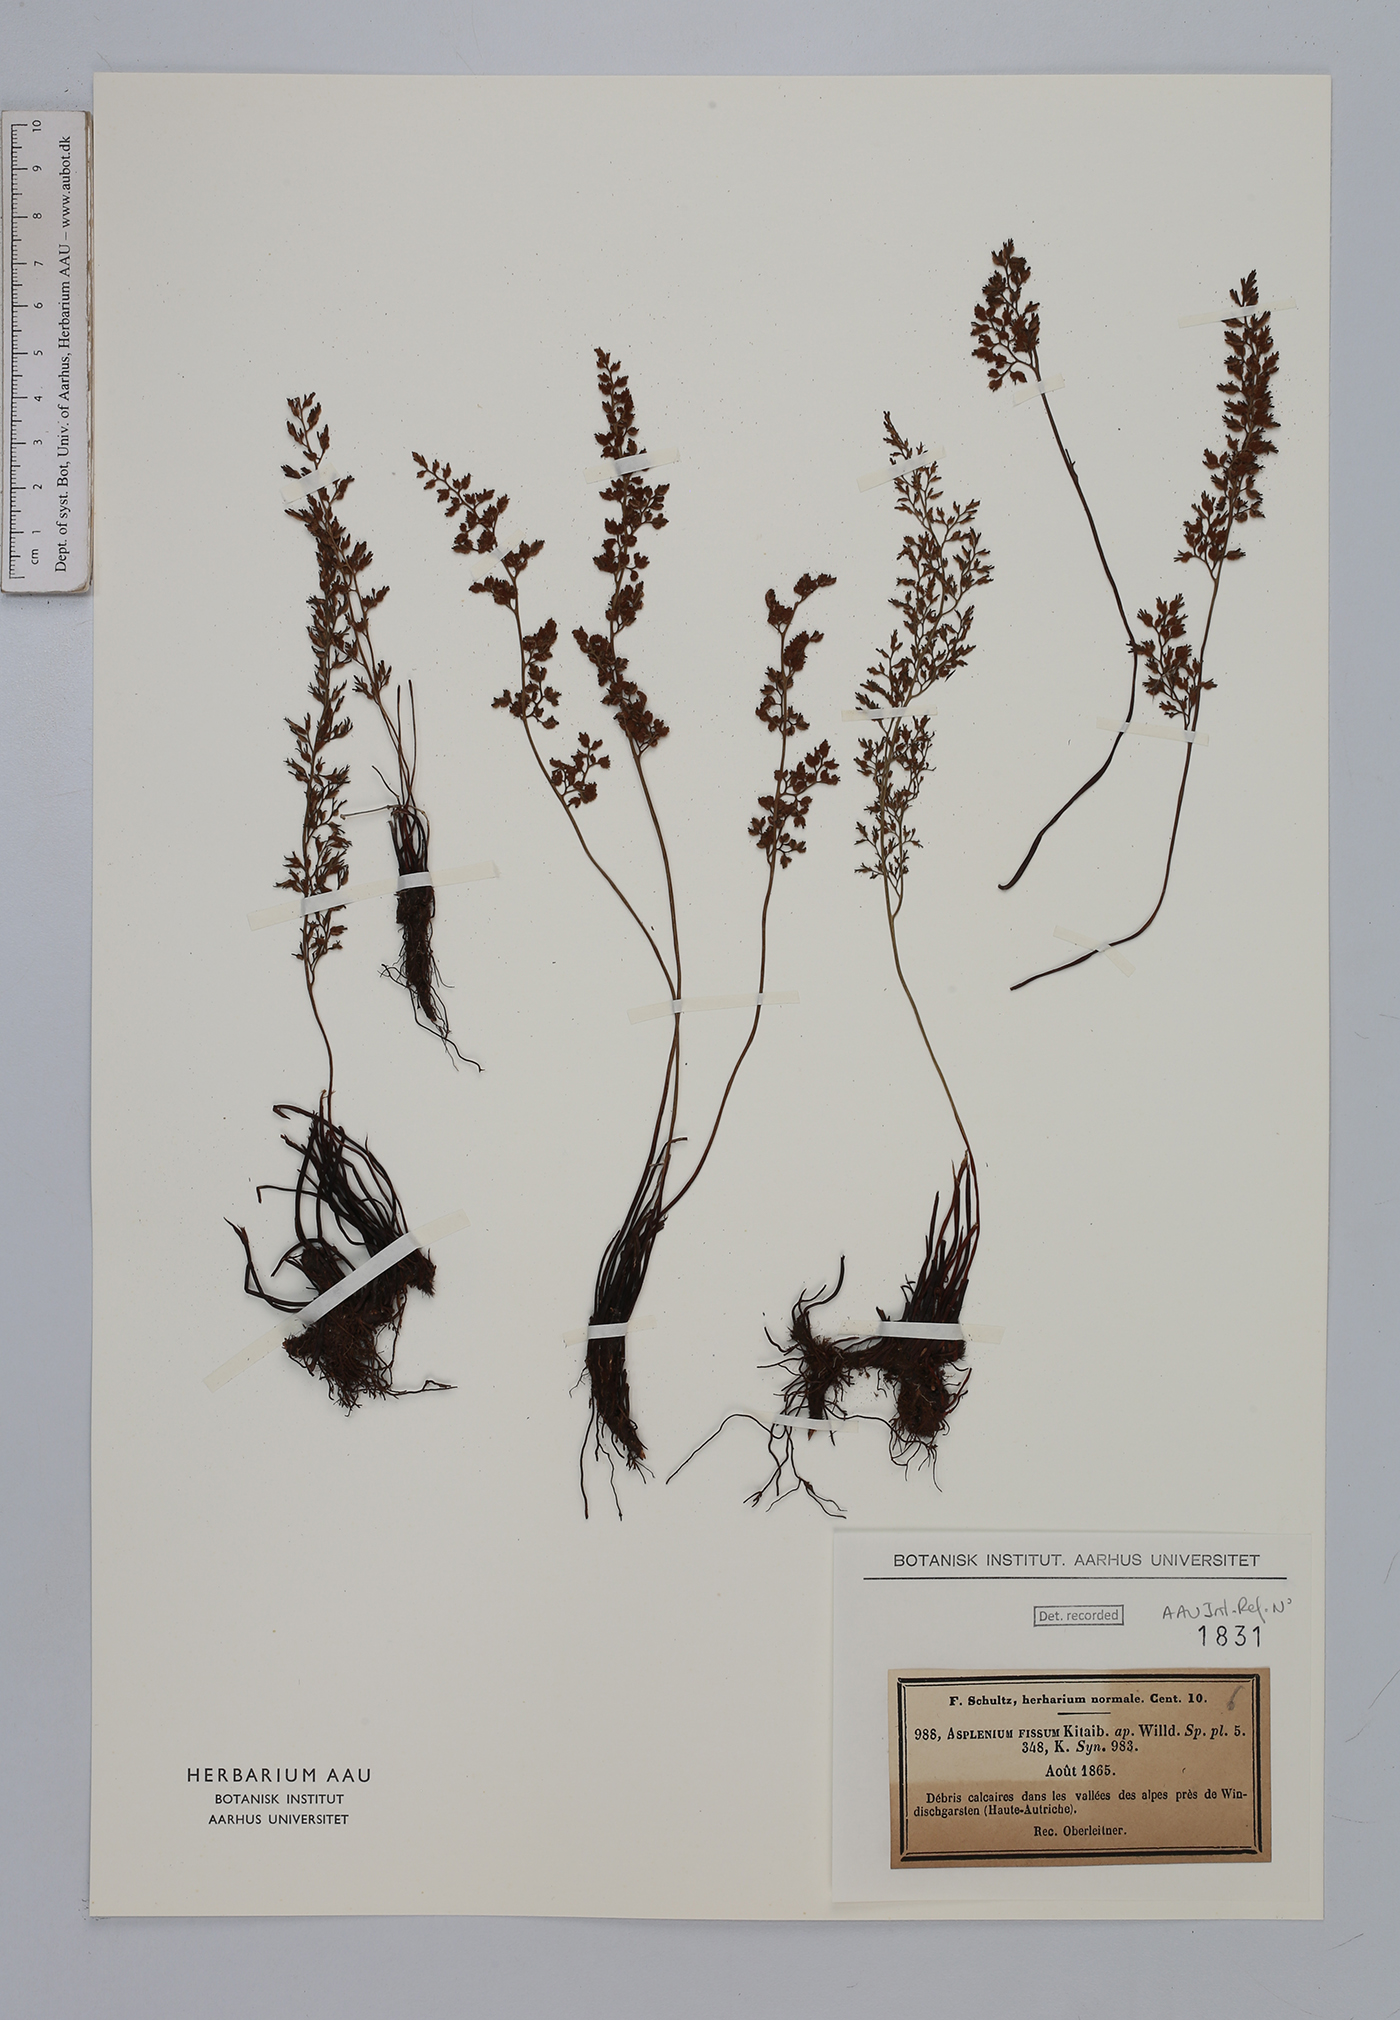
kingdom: Plantae
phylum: Tracheophyta
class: Polypodiopsida
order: Polypodiales
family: Aspleniaceae
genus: Asplenium
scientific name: Asplenium fissum
